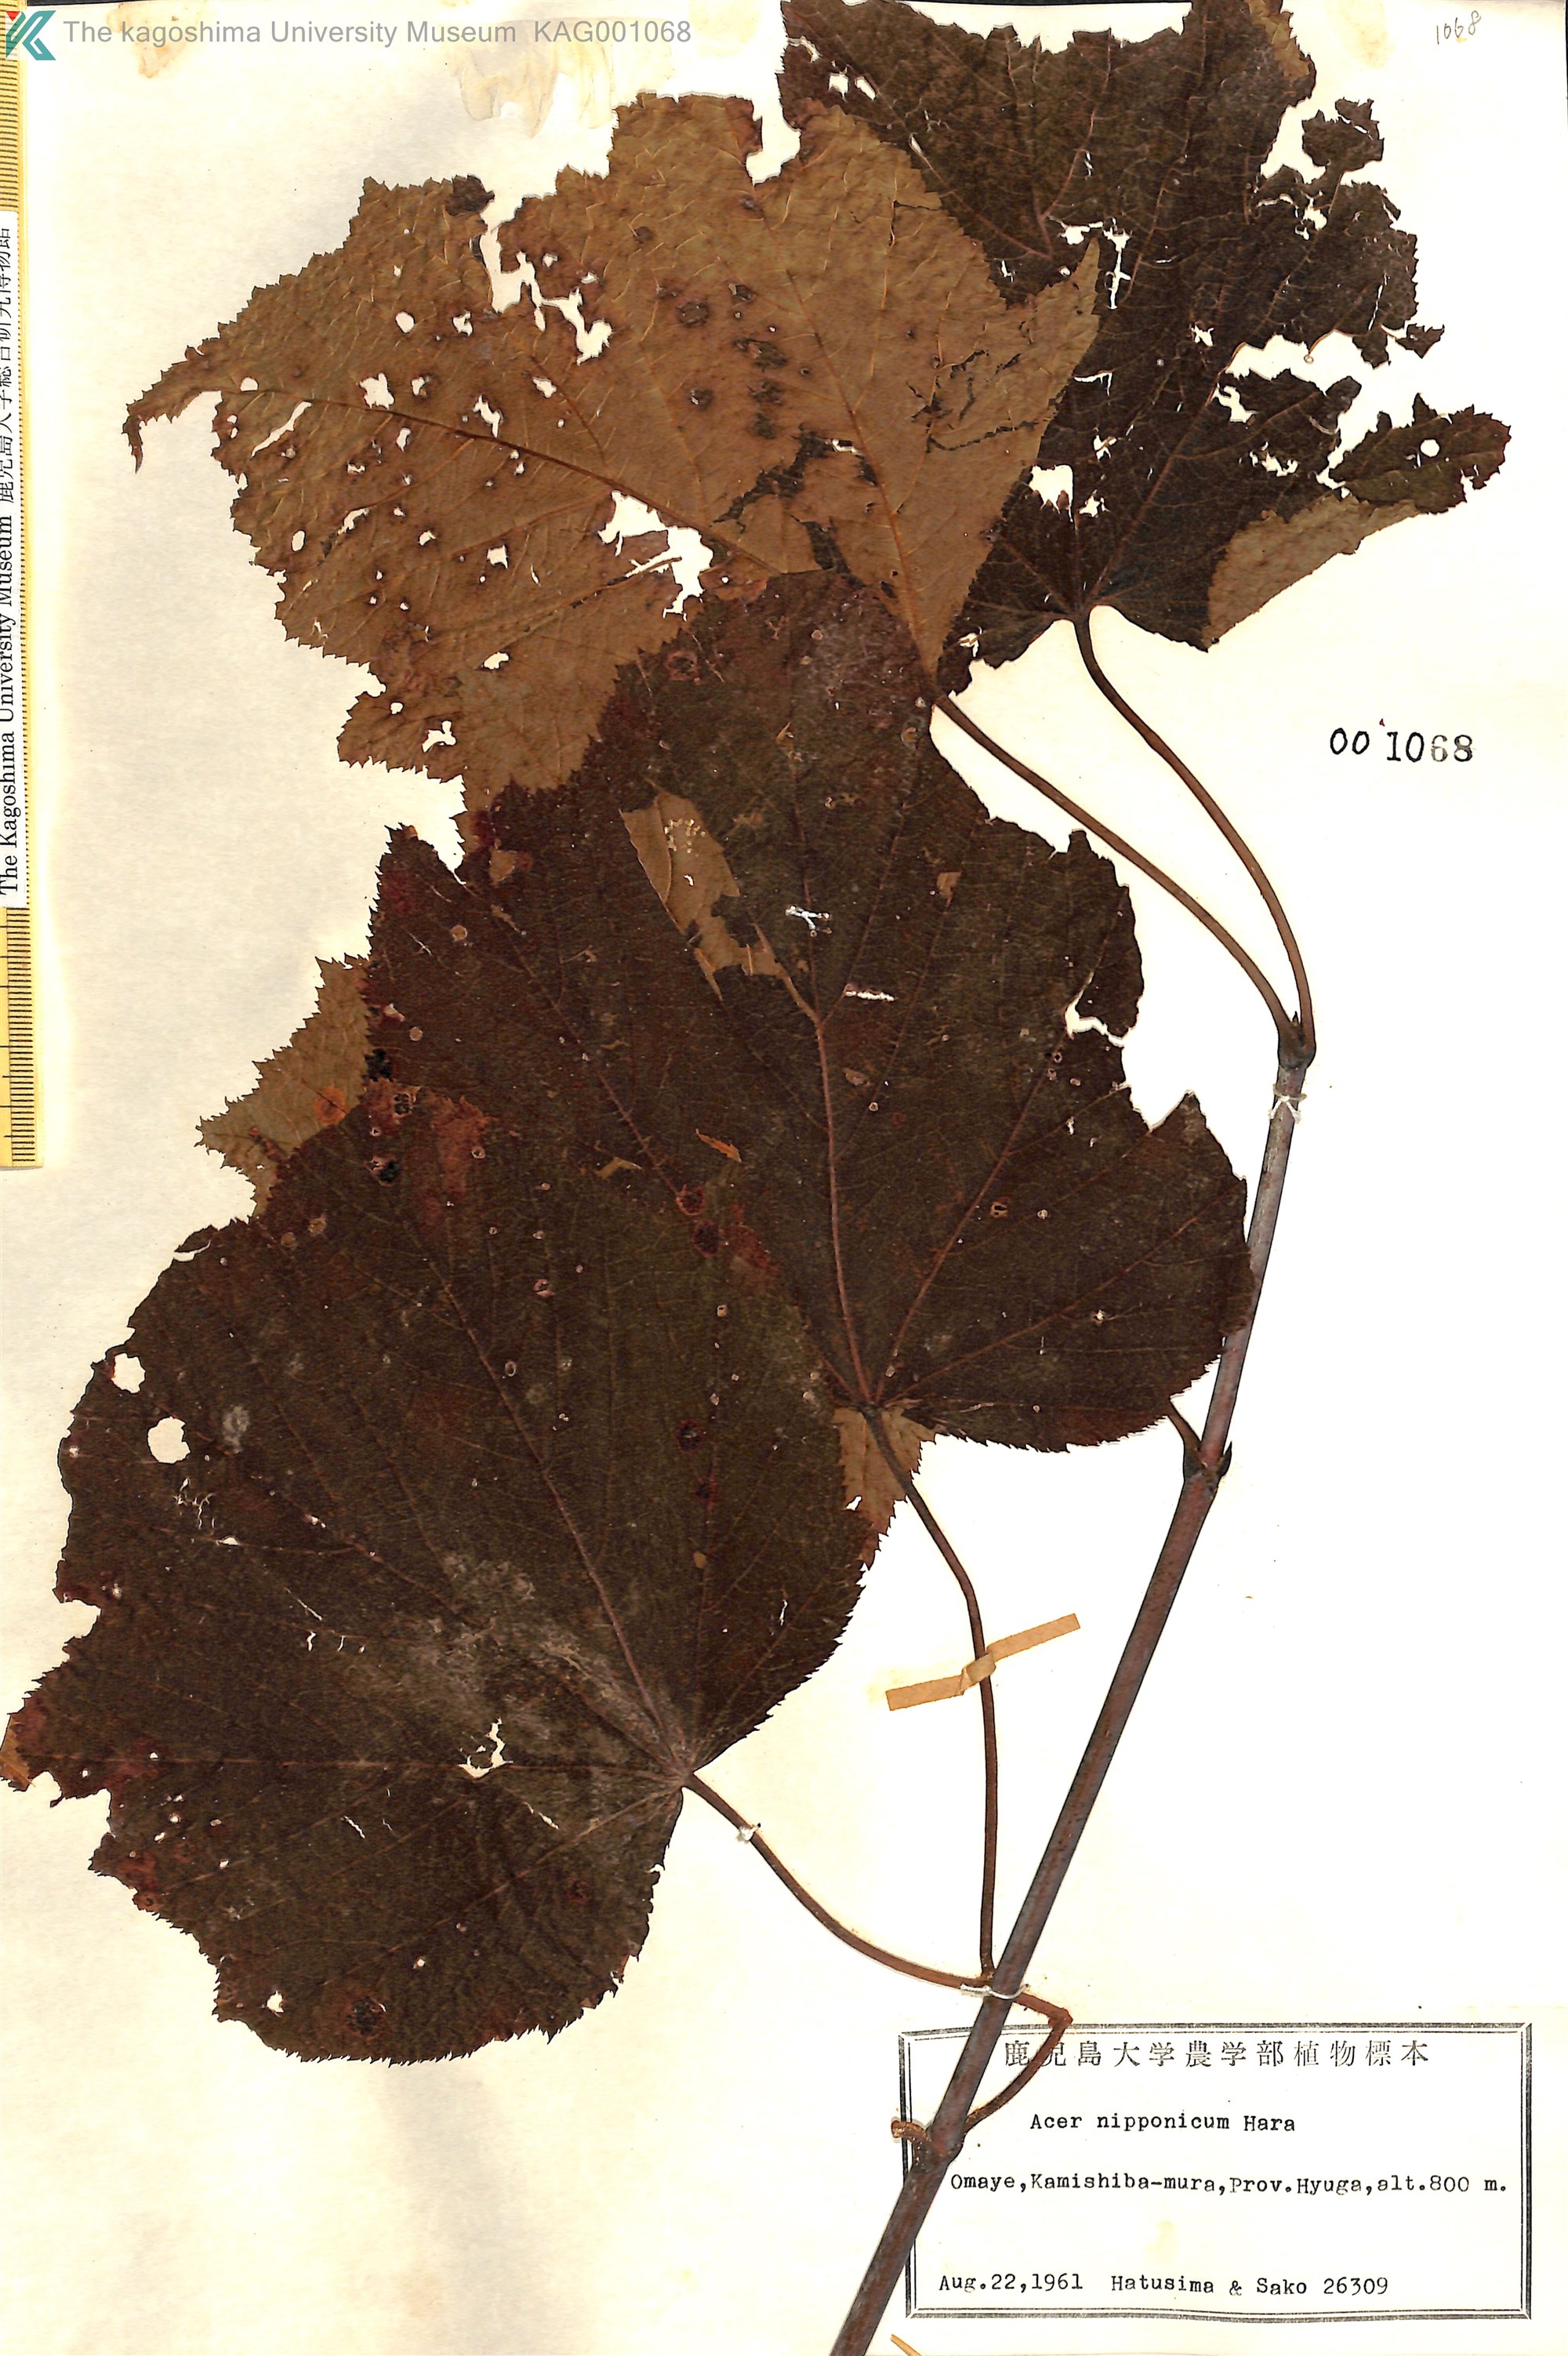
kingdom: Plantae
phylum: Tracheophyta
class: Magnoliopsida
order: Sapindales
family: Sapindaceae
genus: Acer
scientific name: Acer nipponicum
